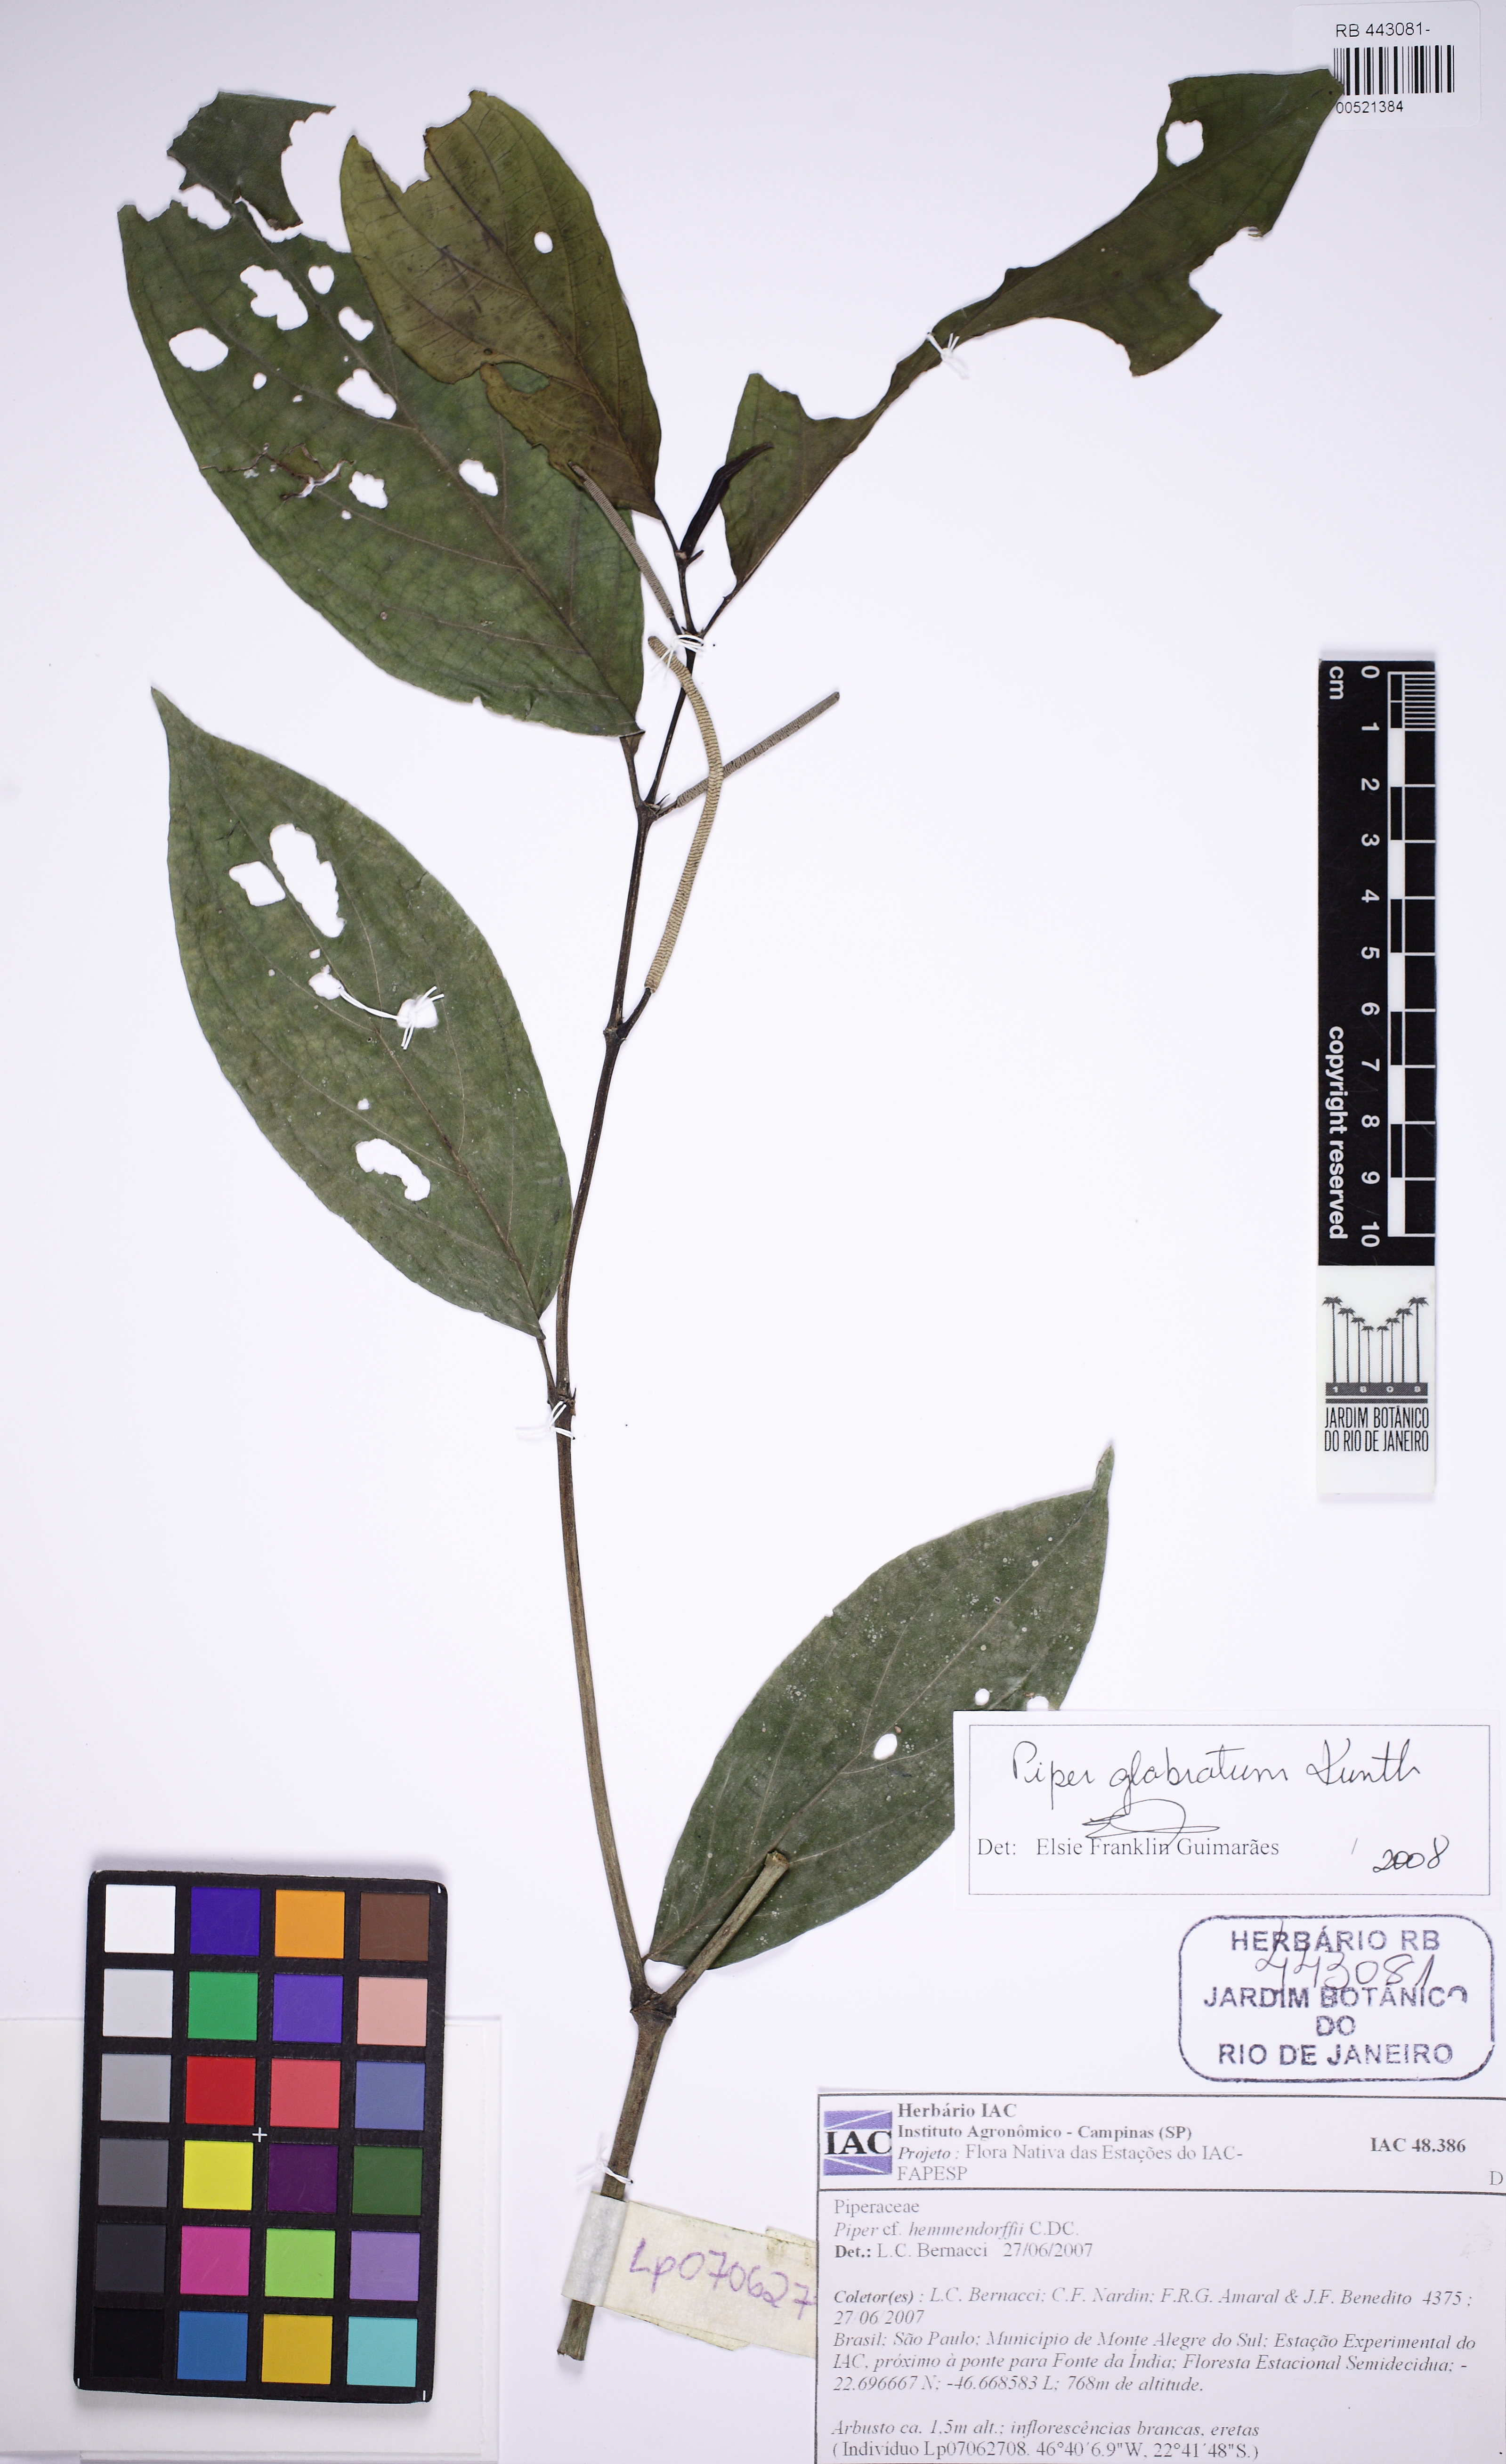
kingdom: Plantae
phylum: Tracheophyta
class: Magnoliopsida
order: Piperales
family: Piperaceae
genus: Piper
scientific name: Piper glabratum
